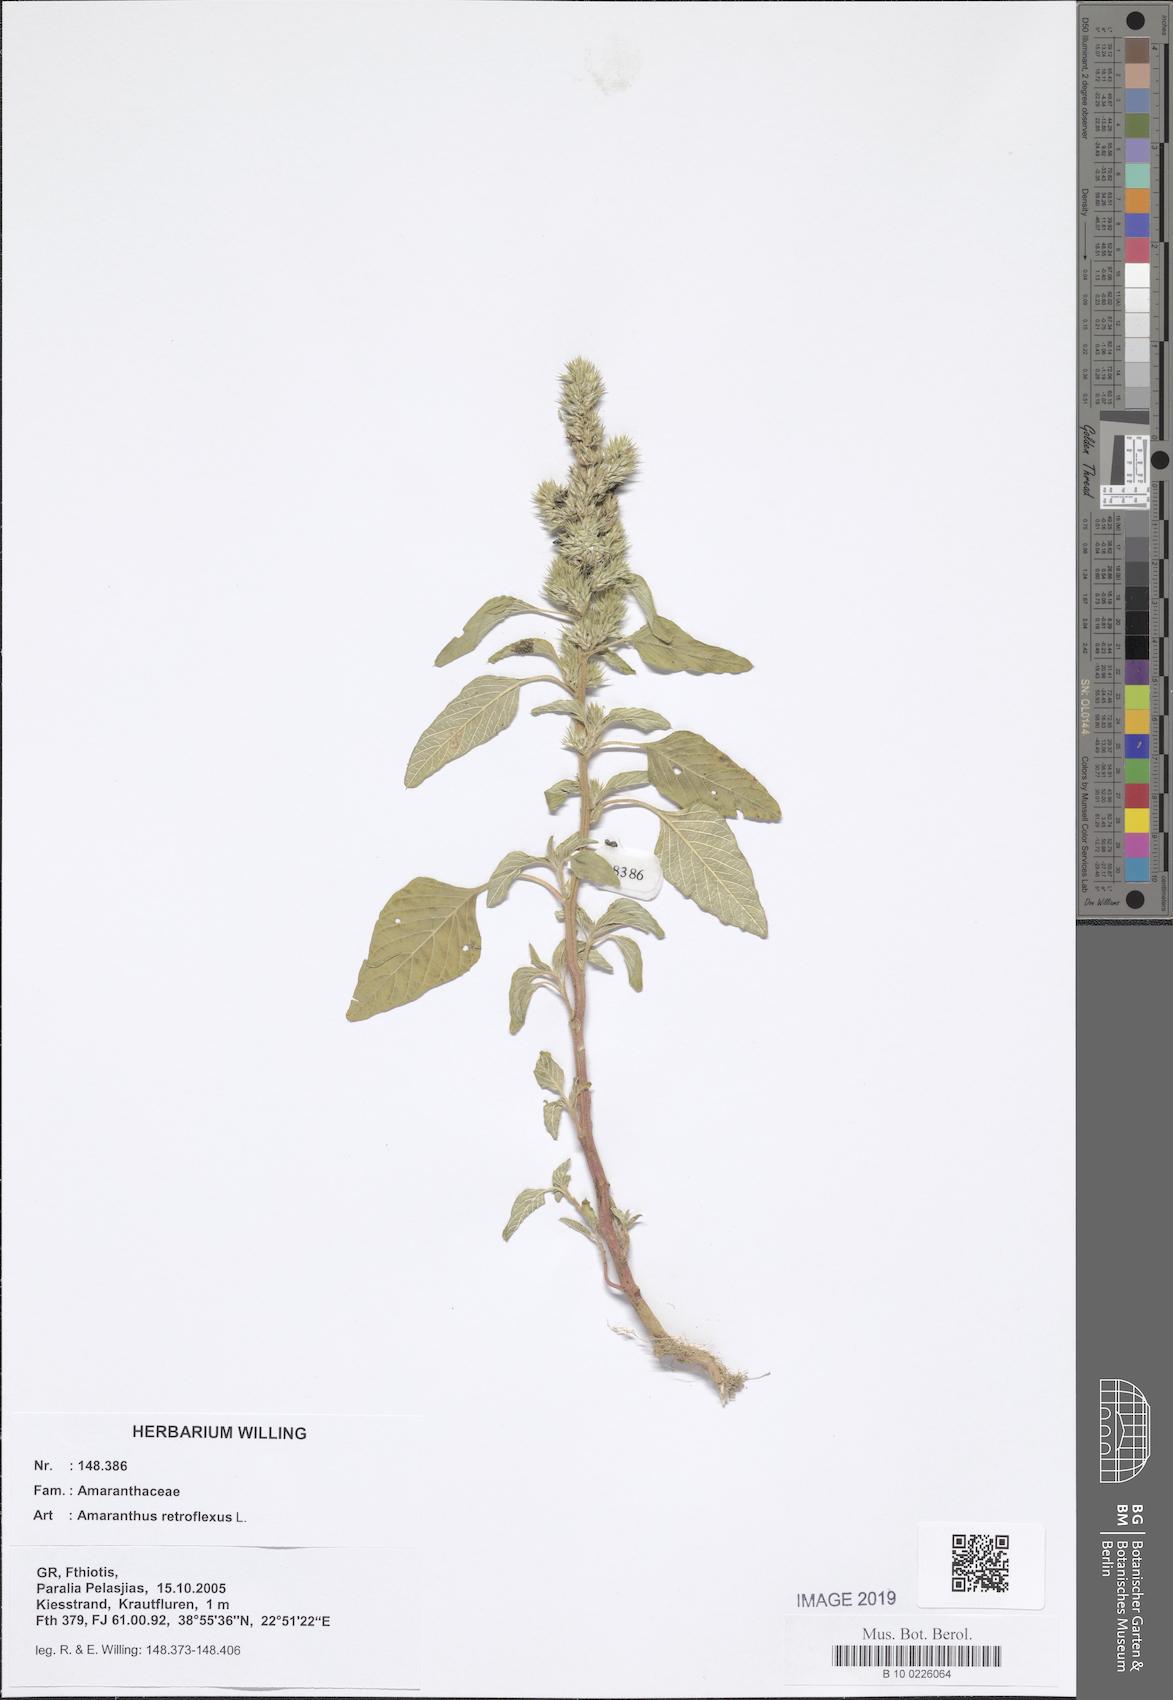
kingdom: Plantae
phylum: Tracheophyta
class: Magnoliopsida
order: Caryophyllales
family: Amaranthaceae
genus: Amaranthus
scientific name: Amaranthus retroflexus
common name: Redroot amaranth
